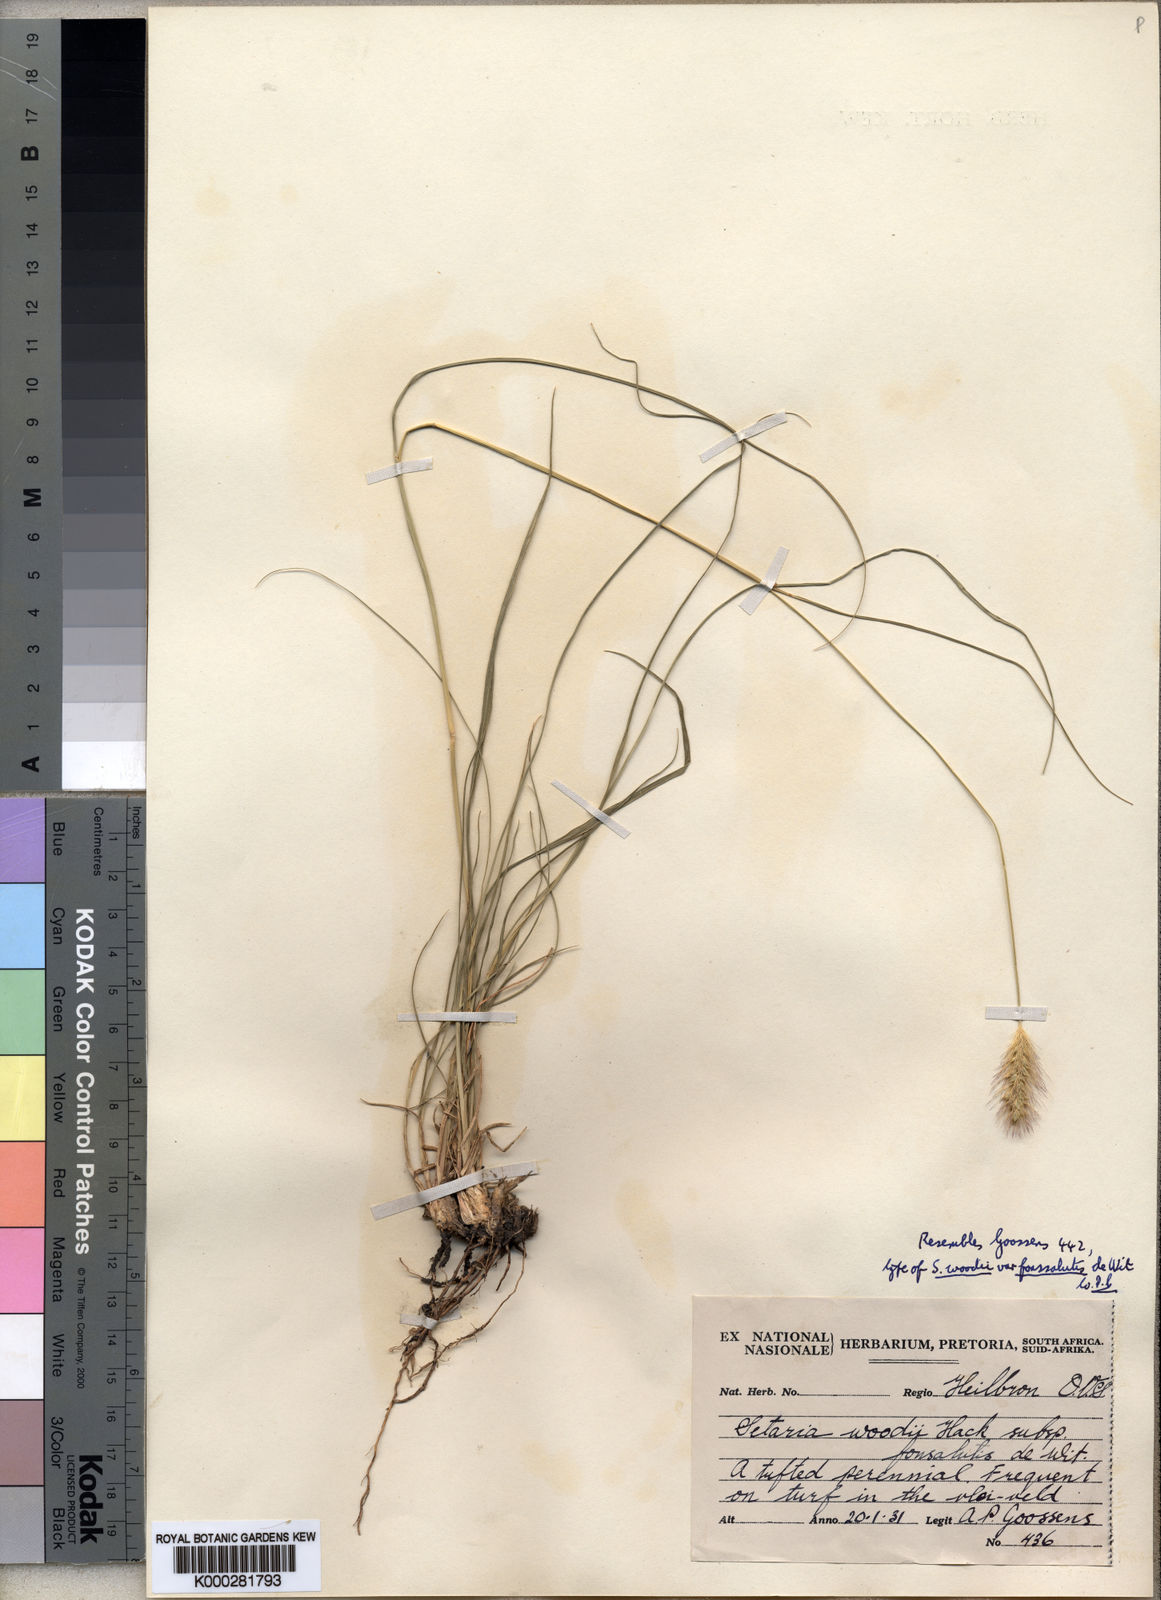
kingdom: Plantae
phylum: Tracheophyta
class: Liliopsida
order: Poales
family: Poaceae
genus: Setaria
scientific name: Setaria incrassata
